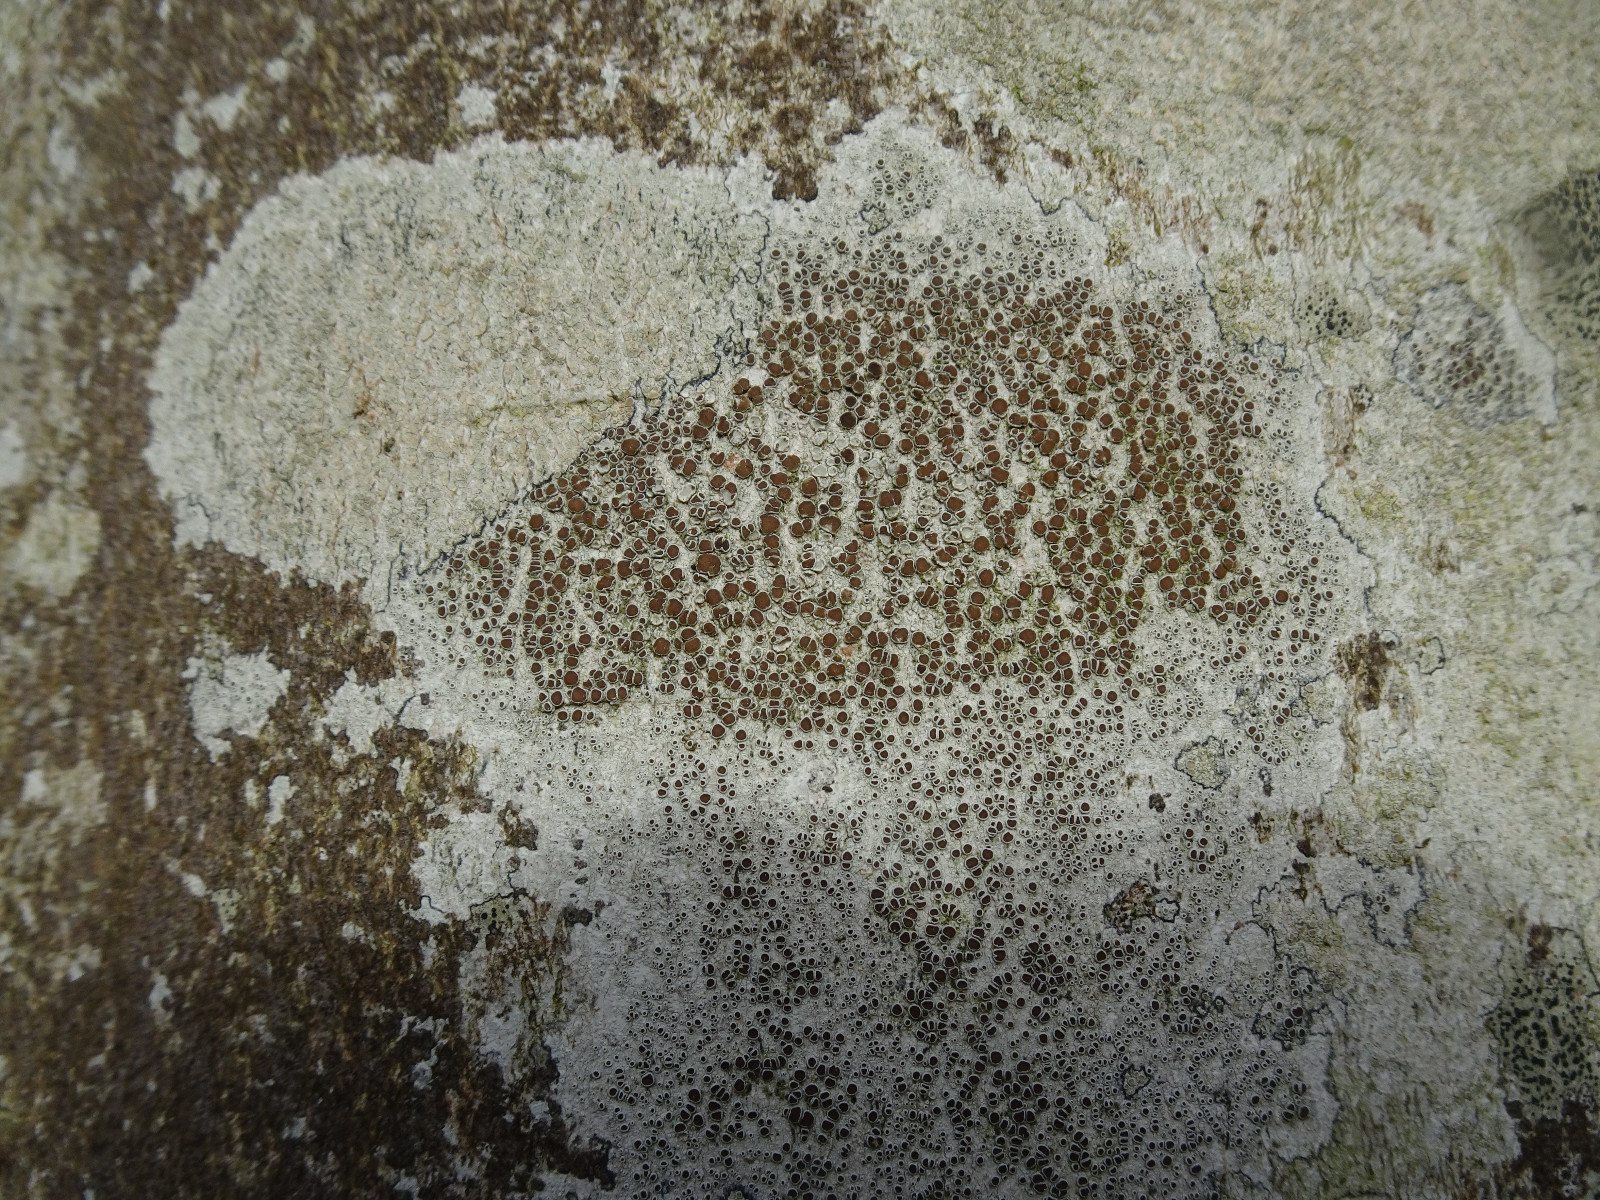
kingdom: Fungi
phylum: Ascomycota
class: Lecanoromycetes
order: Lecanorales
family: Lecanoraceae
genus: Lecanora
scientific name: Lecanora chlarotera
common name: brun kantskivelav
